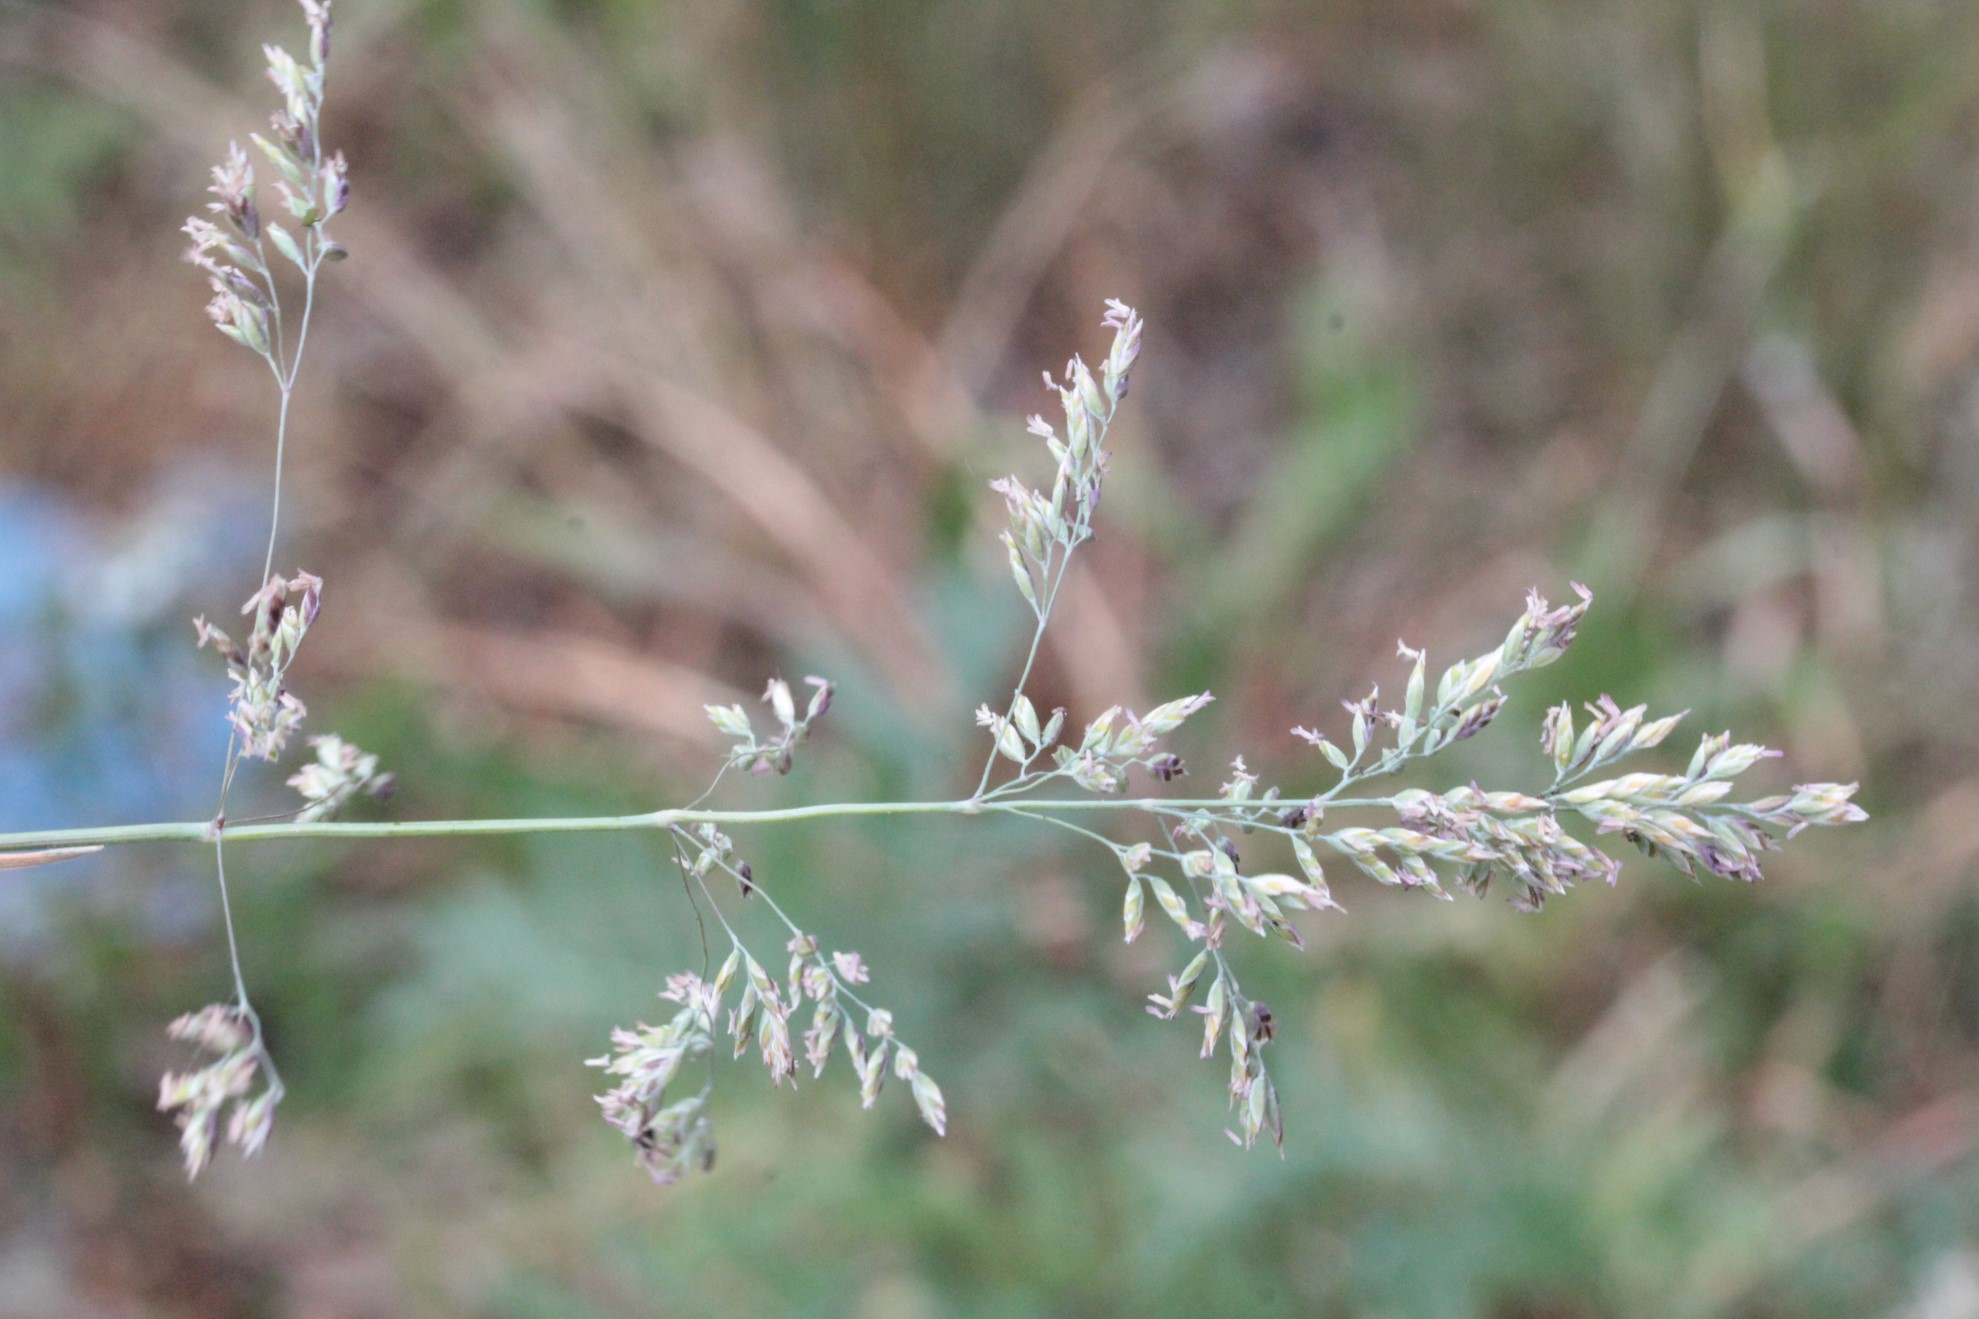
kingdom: Plantae
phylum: Tracheophyta
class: Liliopsida
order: Poales
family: Poaceae
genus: Dactylis
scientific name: Dactylis glomerata
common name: Orchardgrass
